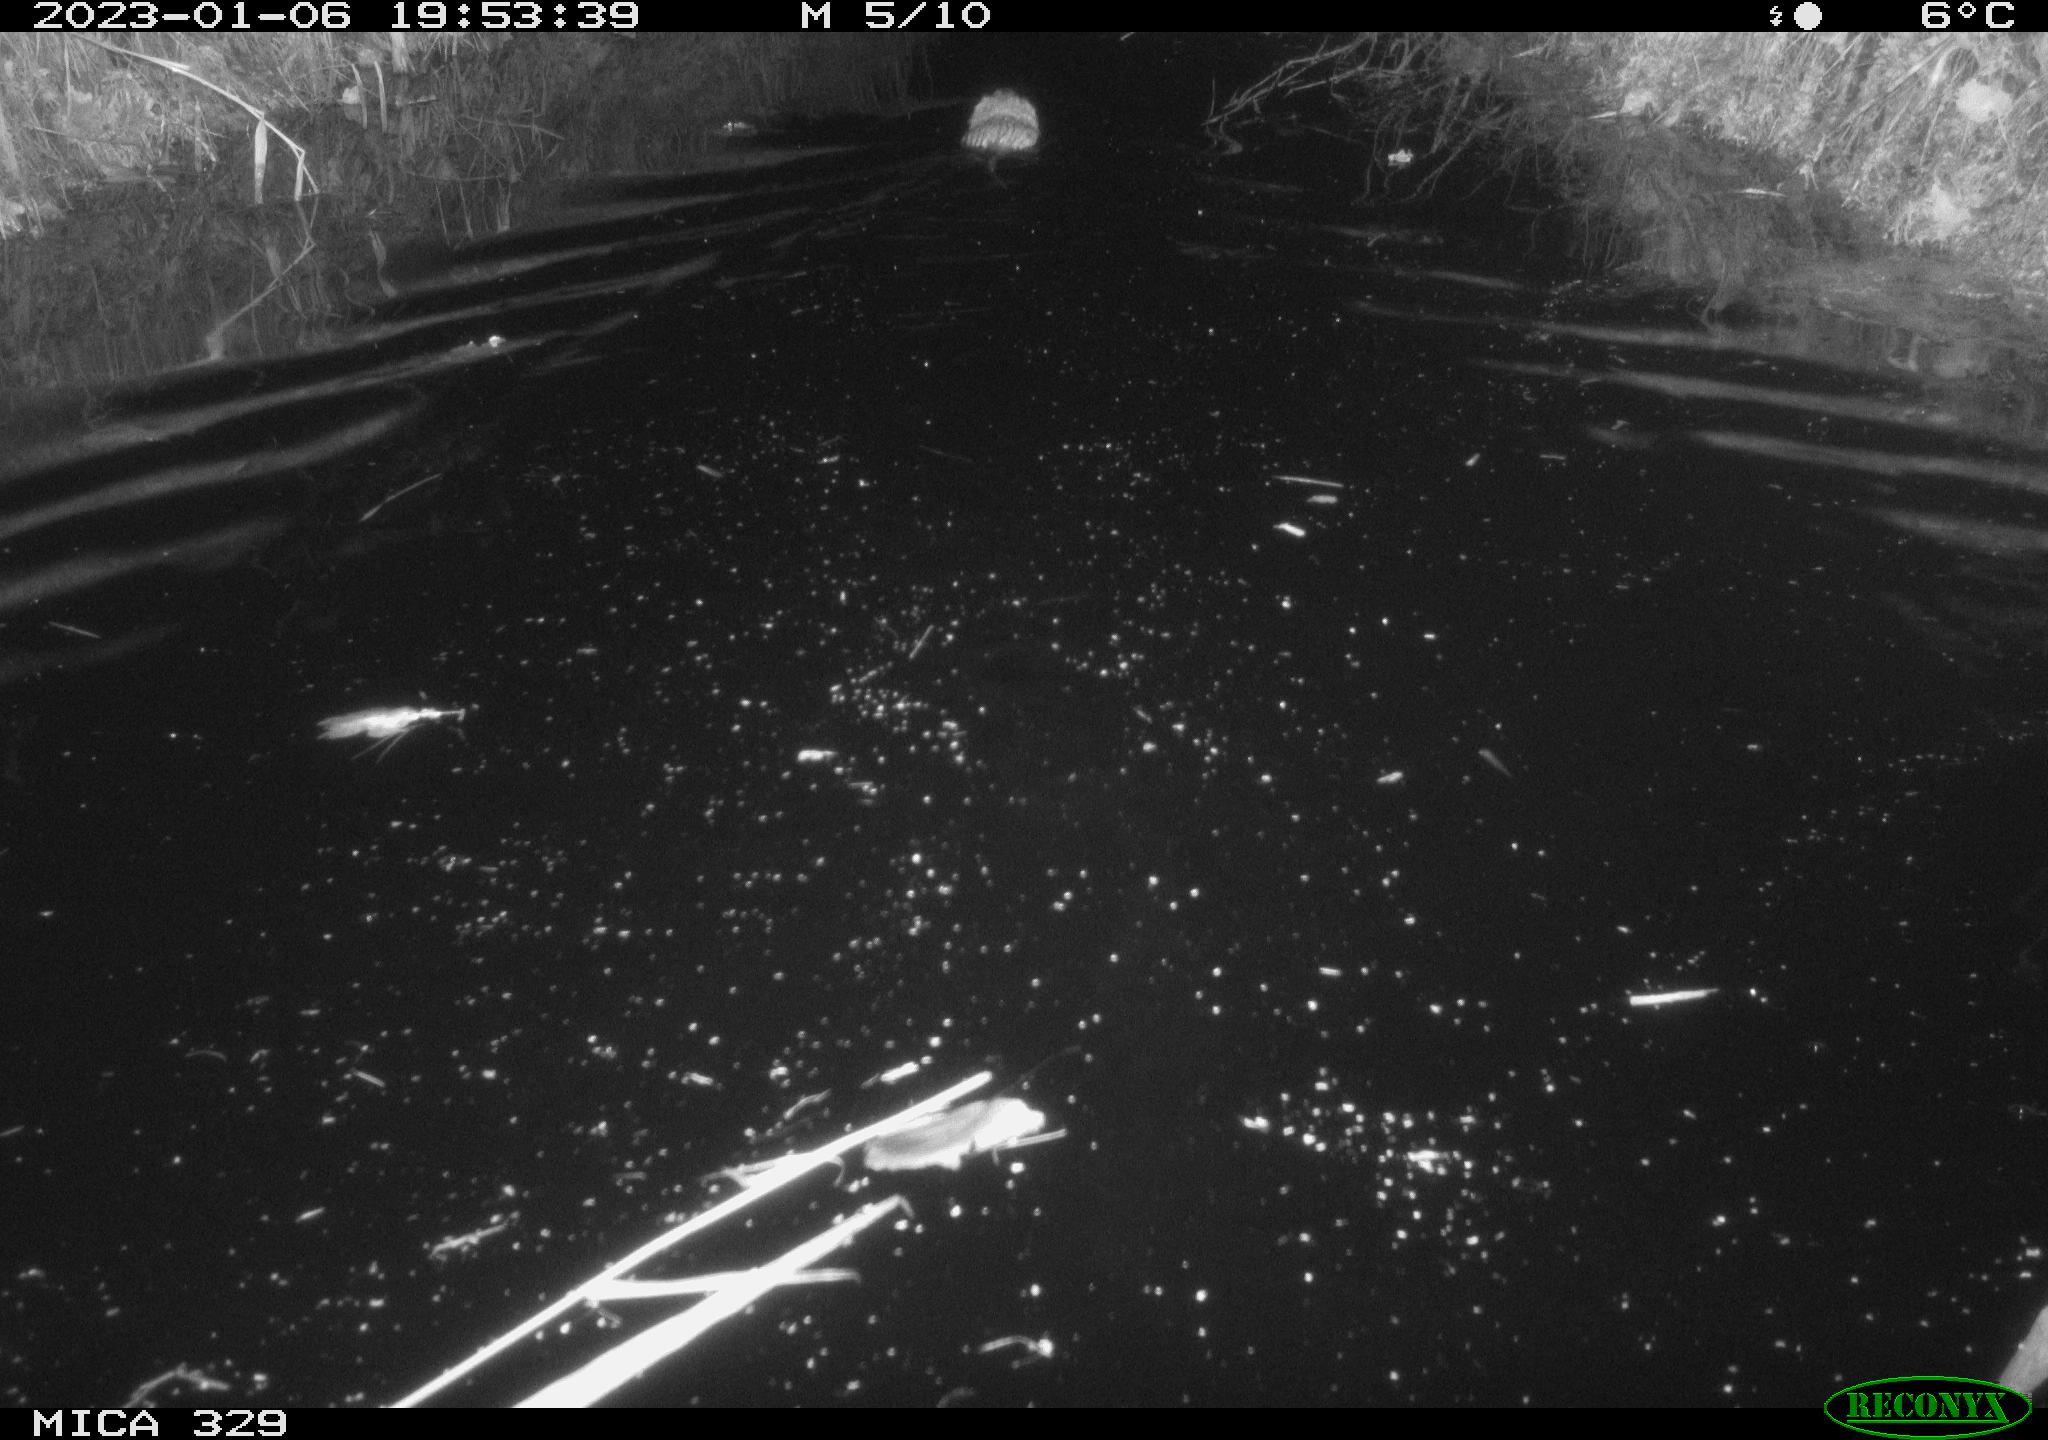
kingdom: Animalia
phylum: Chordata
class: Mammalia
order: Rodentia
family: Cricetidae
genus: Ondatra
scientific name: Ondatra zibethicus
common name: Muskrat
